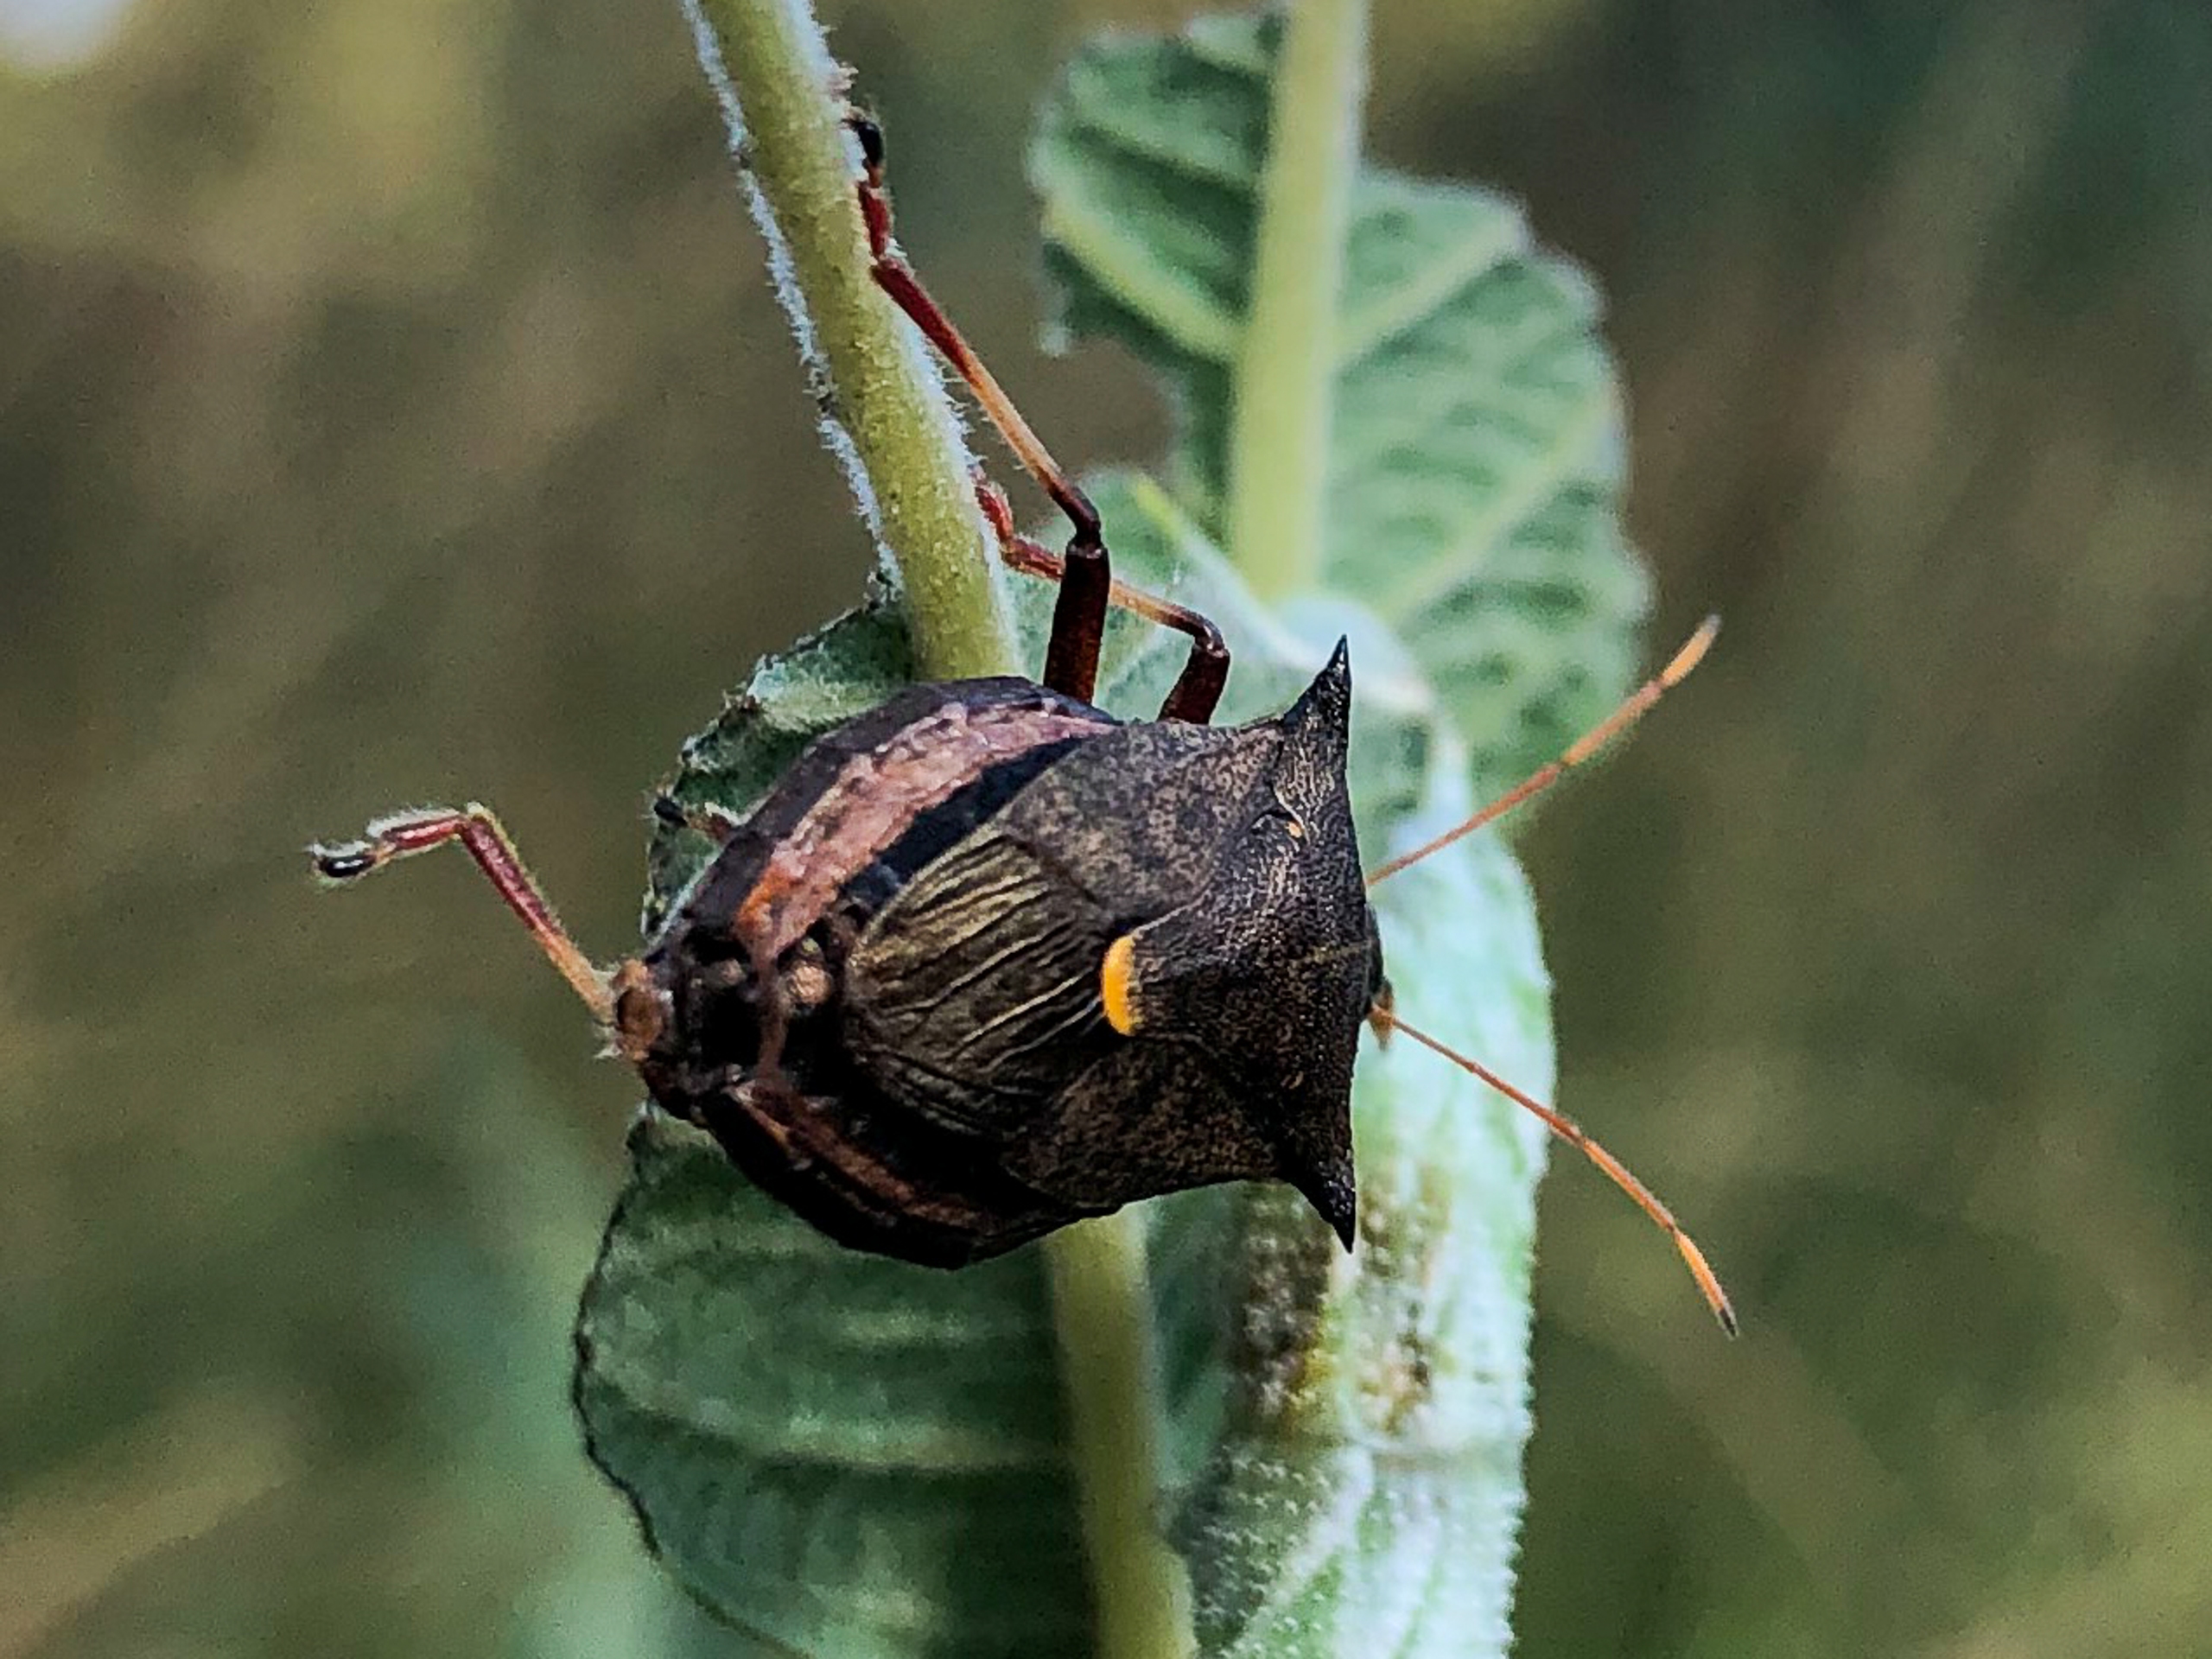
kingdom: Animalia
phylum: Arthropoda
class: Insecta
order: Hemiptera
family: Pentatomidae
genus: Picromerus
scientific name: Picromerus bidens
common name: Torntæge
